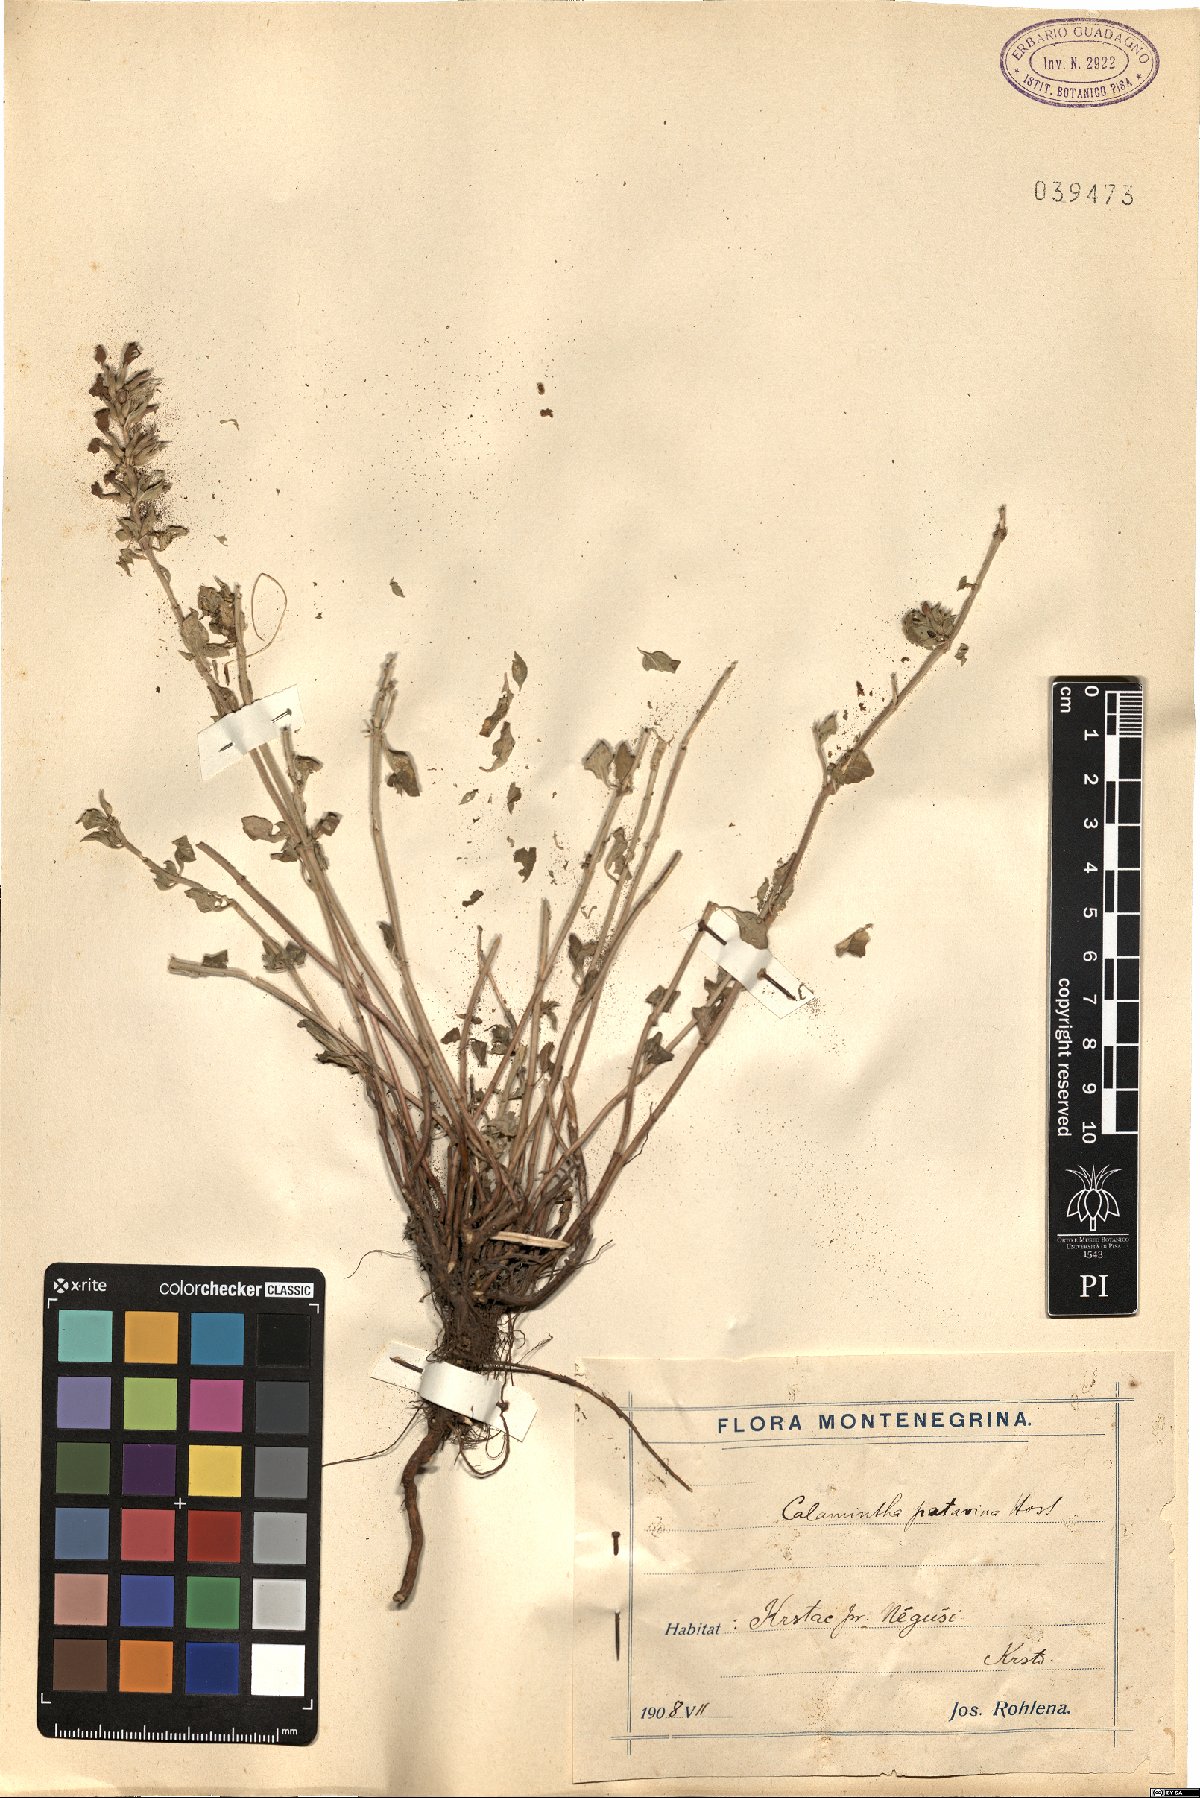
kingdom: Plantae
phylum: Tracheophyta
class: Magnoliopsida
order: Lamiales
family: Lamiaceae
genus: Clinopodium
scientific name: Clinopodium alpinum
